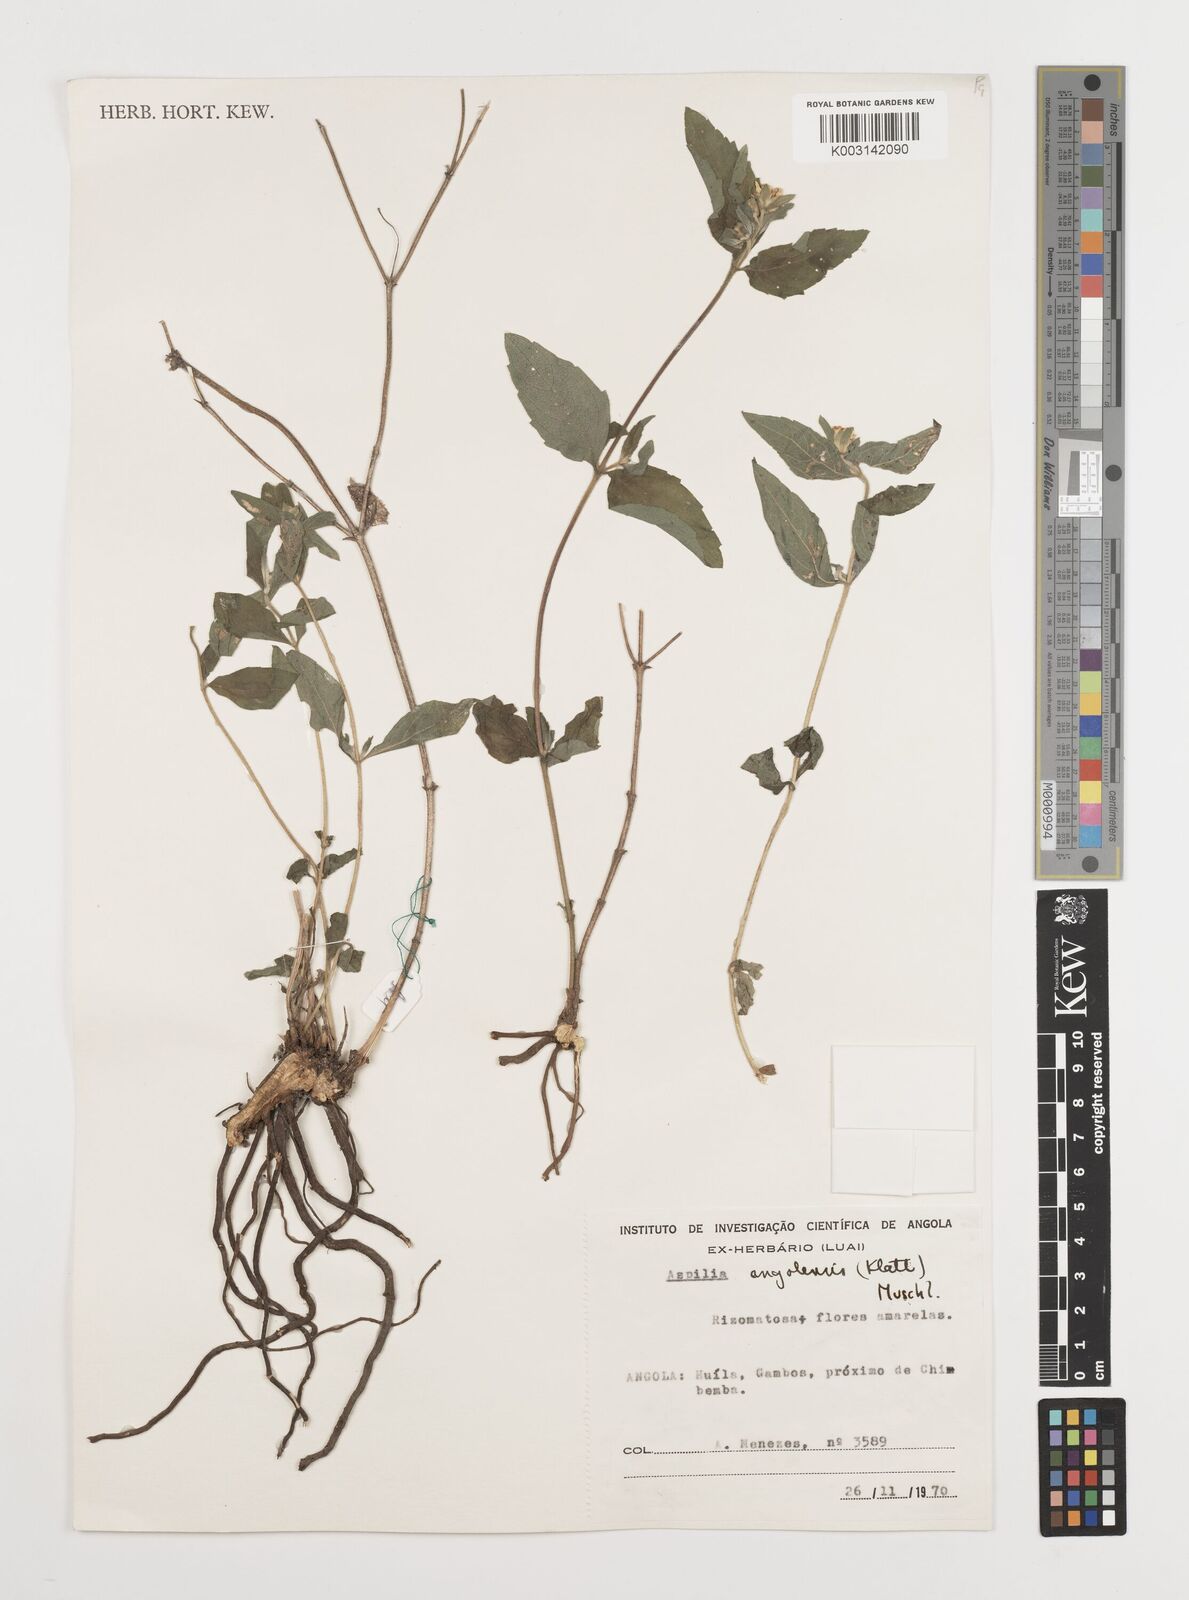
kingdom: Plantae
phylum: Tracheophyta
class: Magnoliopsida
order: Asterales
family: Asteraceae
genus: Aspilia
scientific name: Aspilia angolensis
